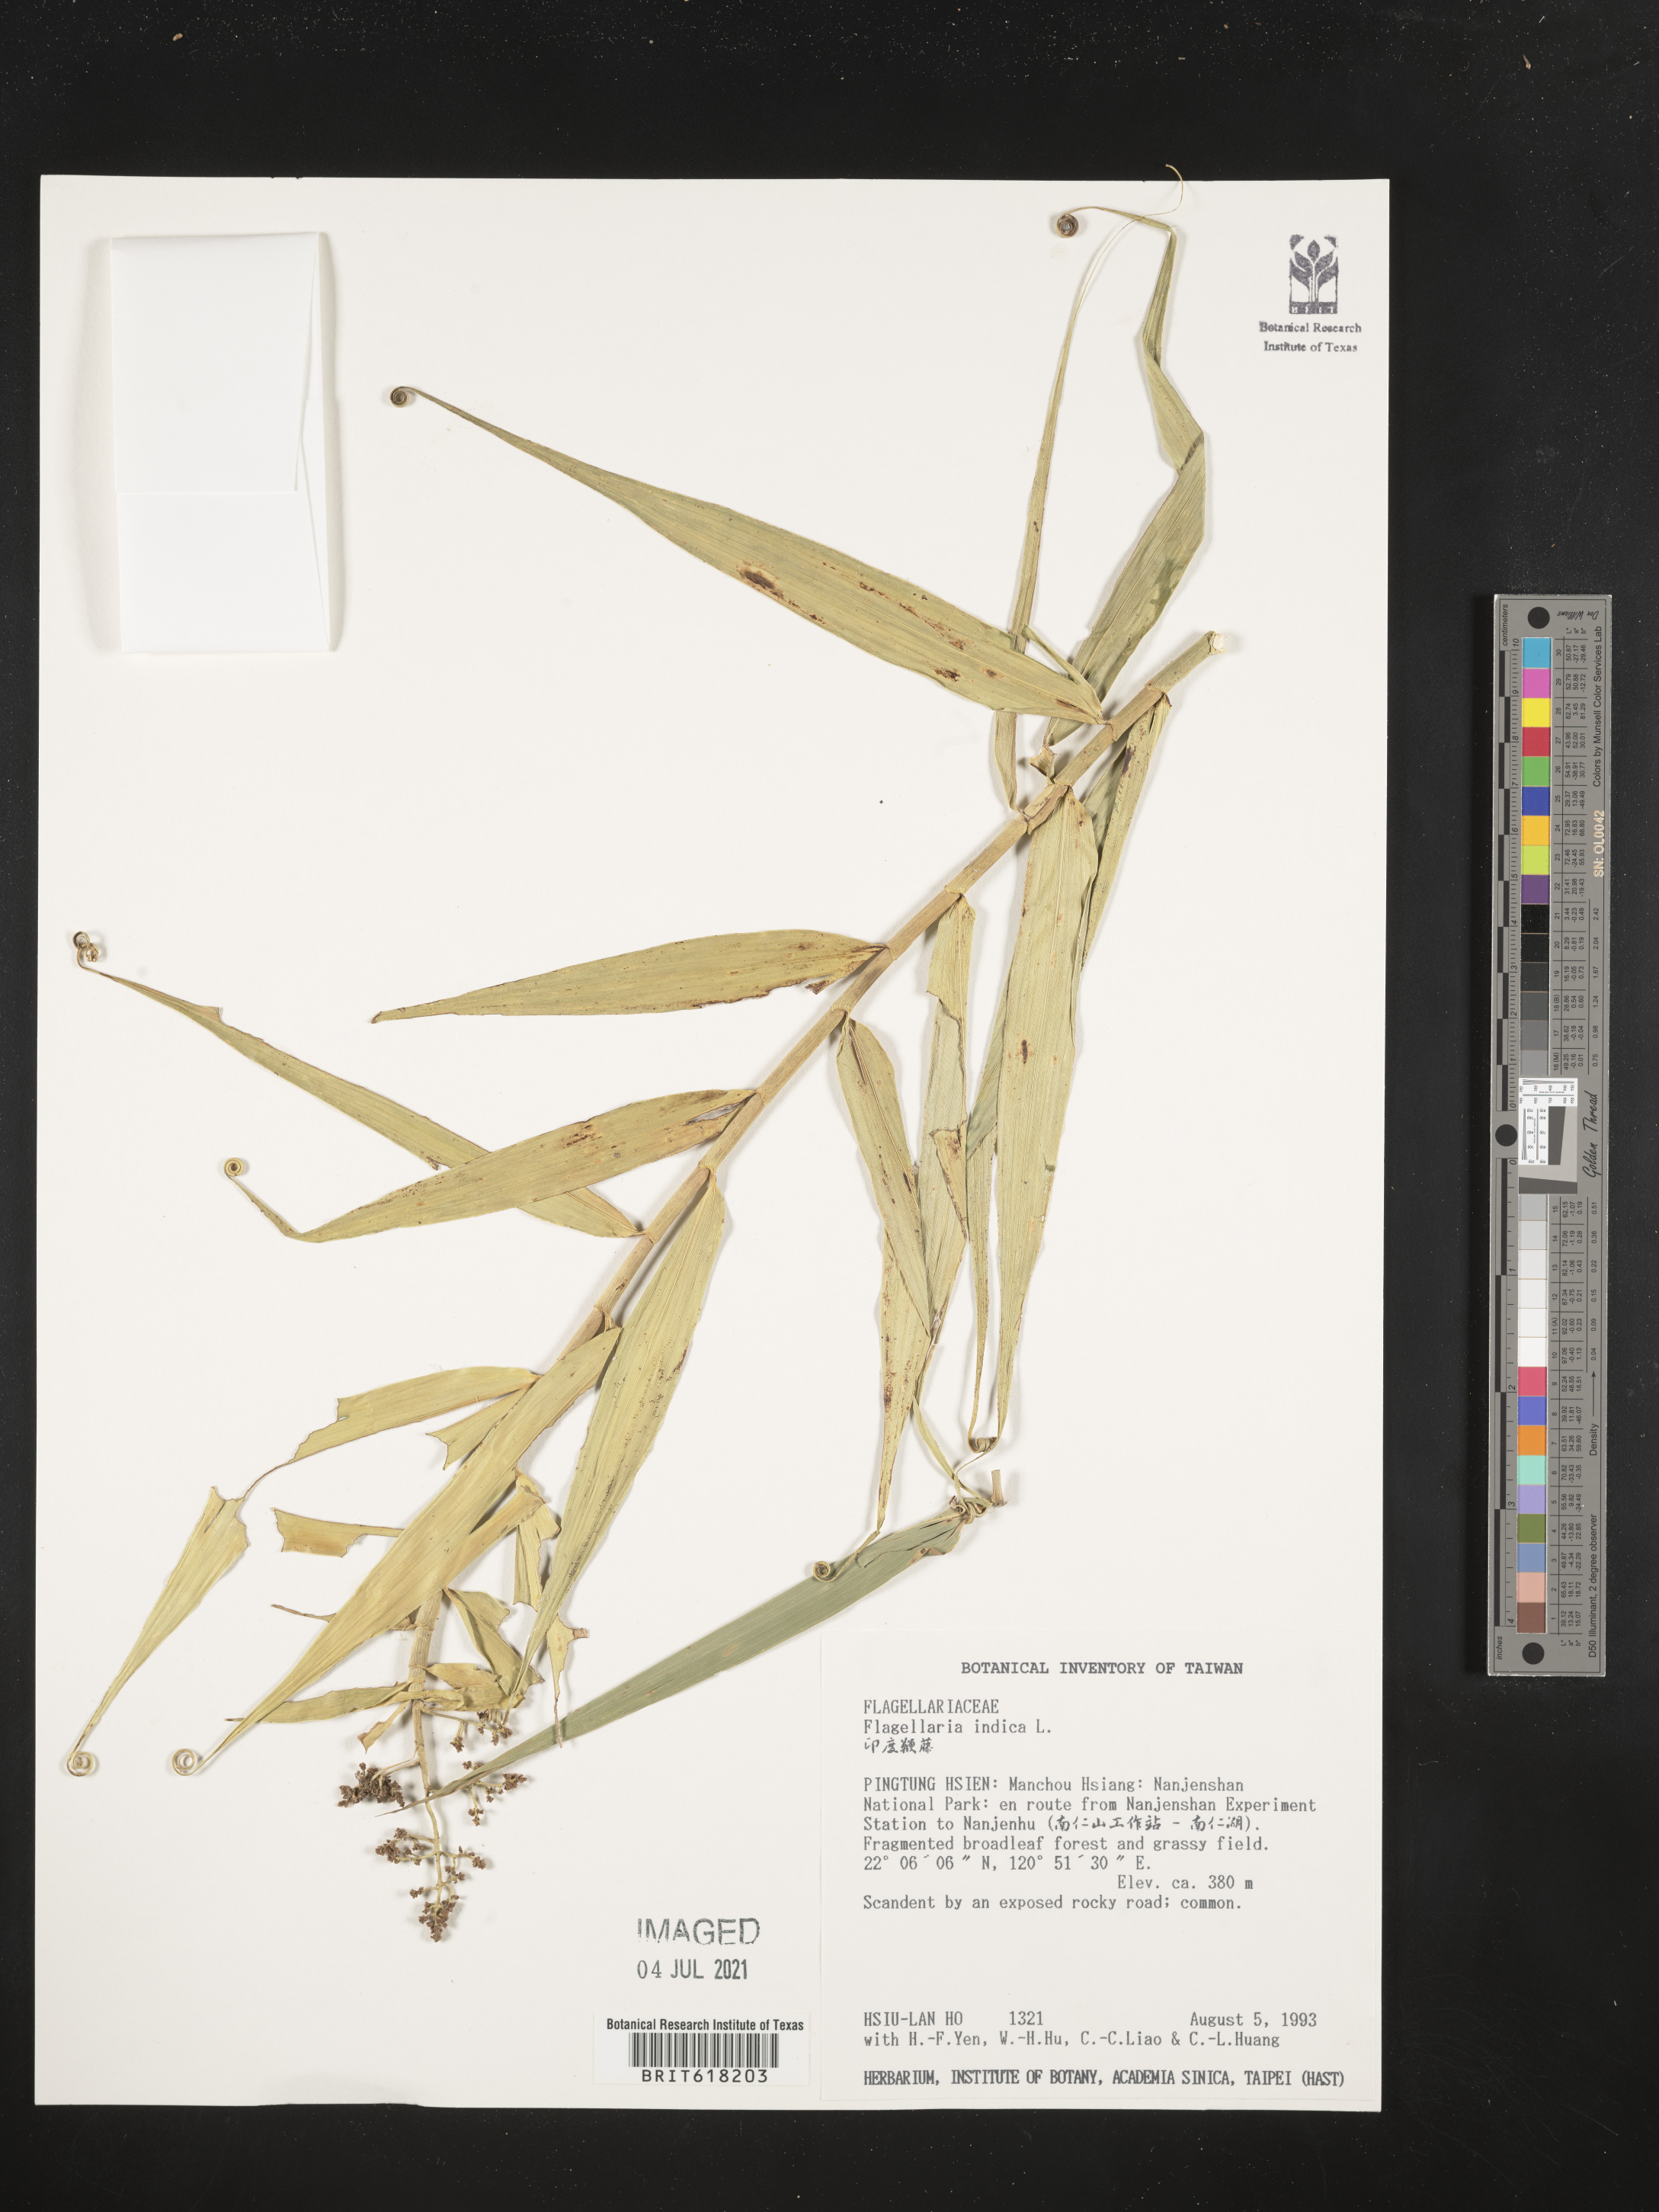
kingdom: Plantae
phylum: Tracheophyta
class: Liliopsida
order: Poales
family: Flagellariaceae
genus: Flagellaria
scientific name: Flagellaria indica
